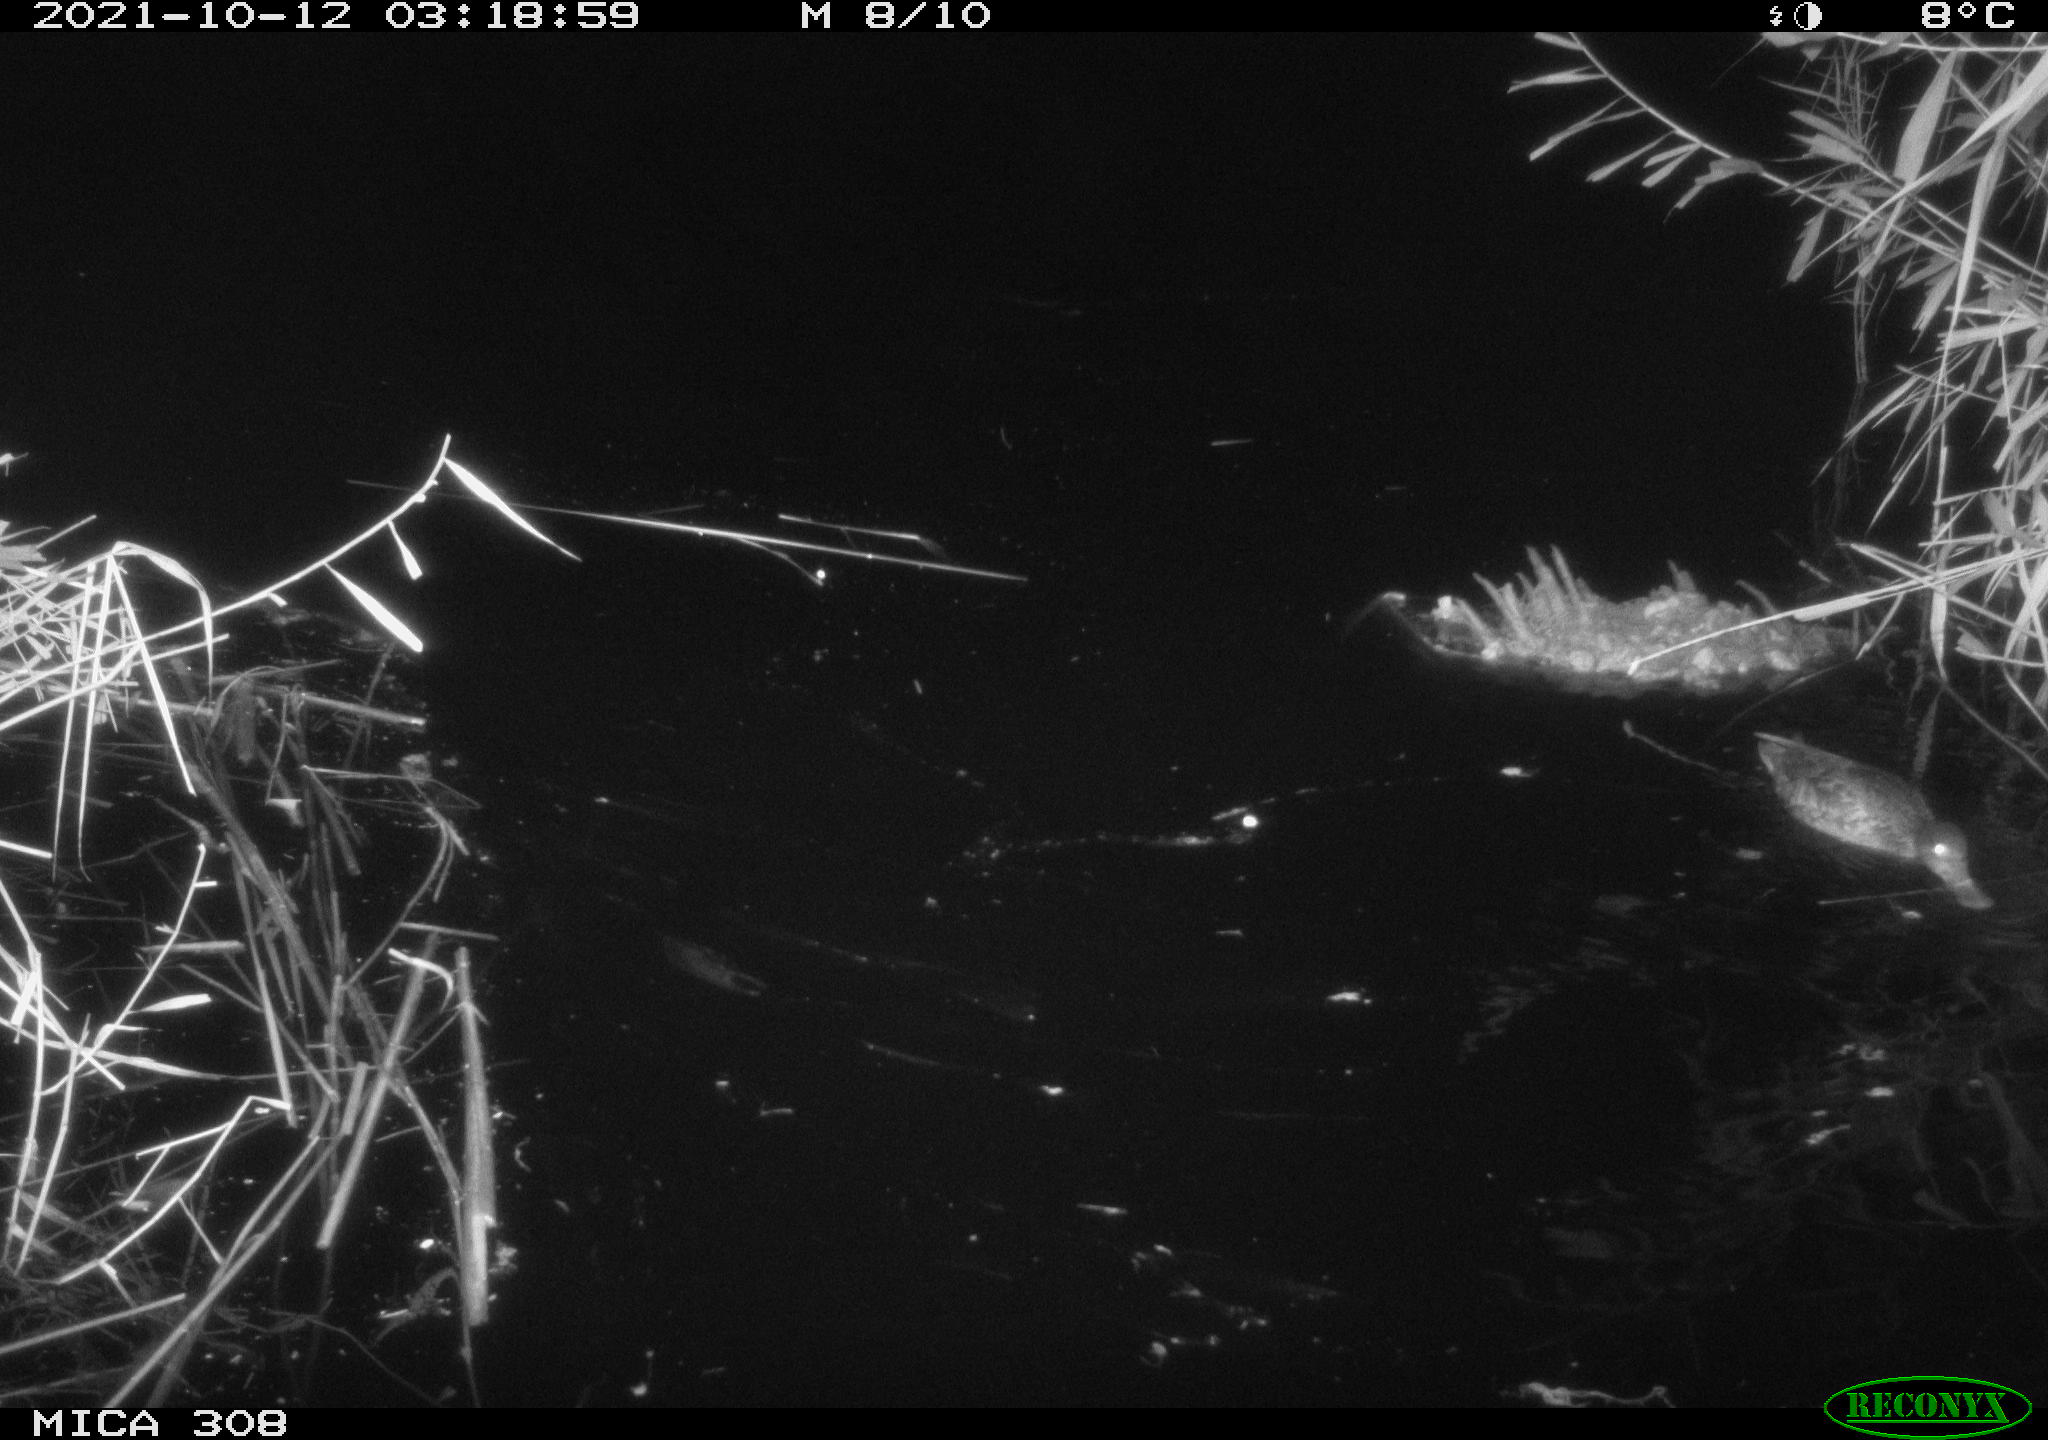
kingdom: Animalia
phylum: Chordata
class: Aves
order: Gruiformes
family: Rallidae
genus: Gallinula
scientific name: Gallinula chloropus
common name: Common moorhen
